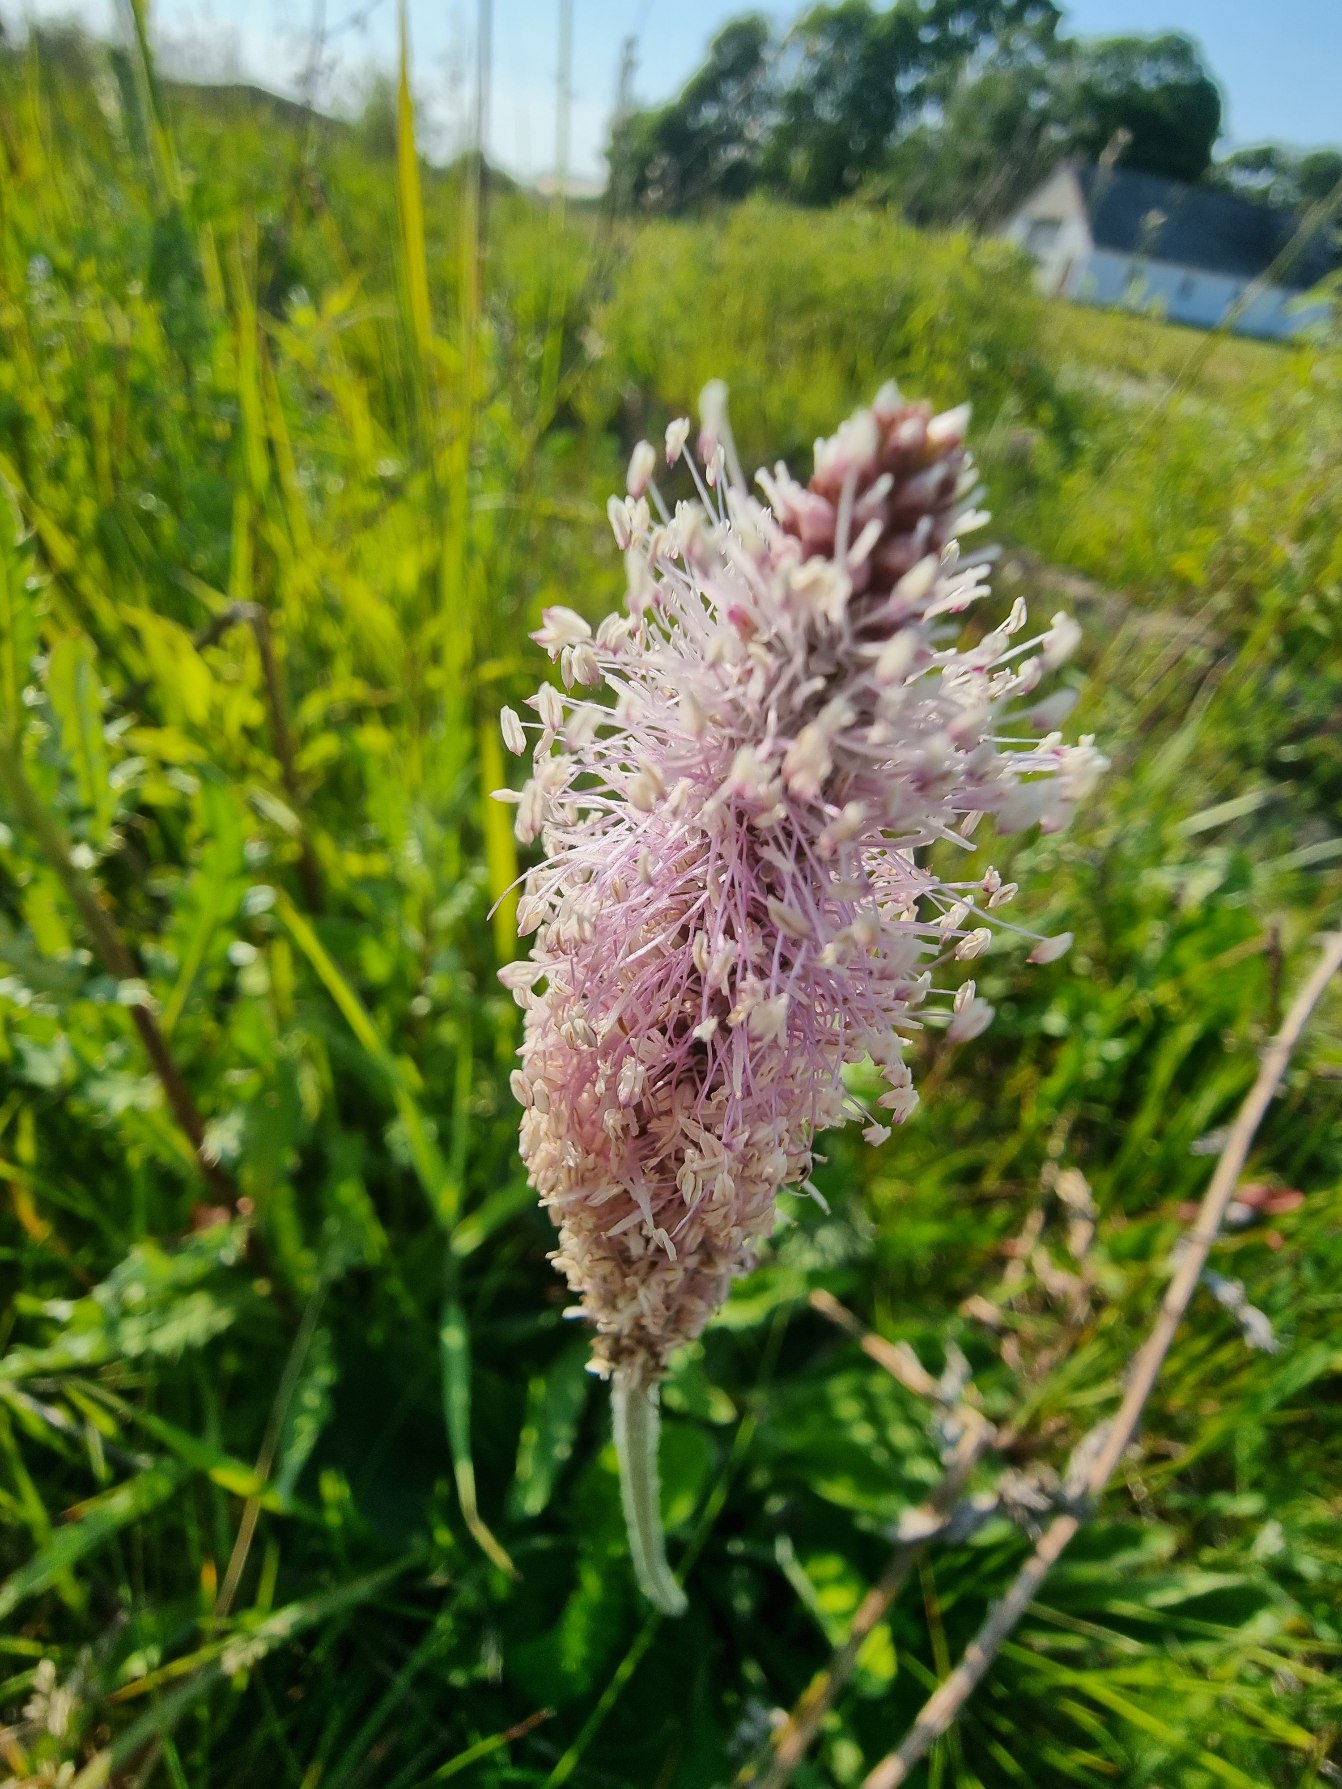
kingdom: Plantae
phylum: Tracheophyta
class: Magnoliopsida
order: Lamiales
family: Plantaginaceae
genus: Plantago
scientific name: Plantago media
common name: Dunet vejbred
